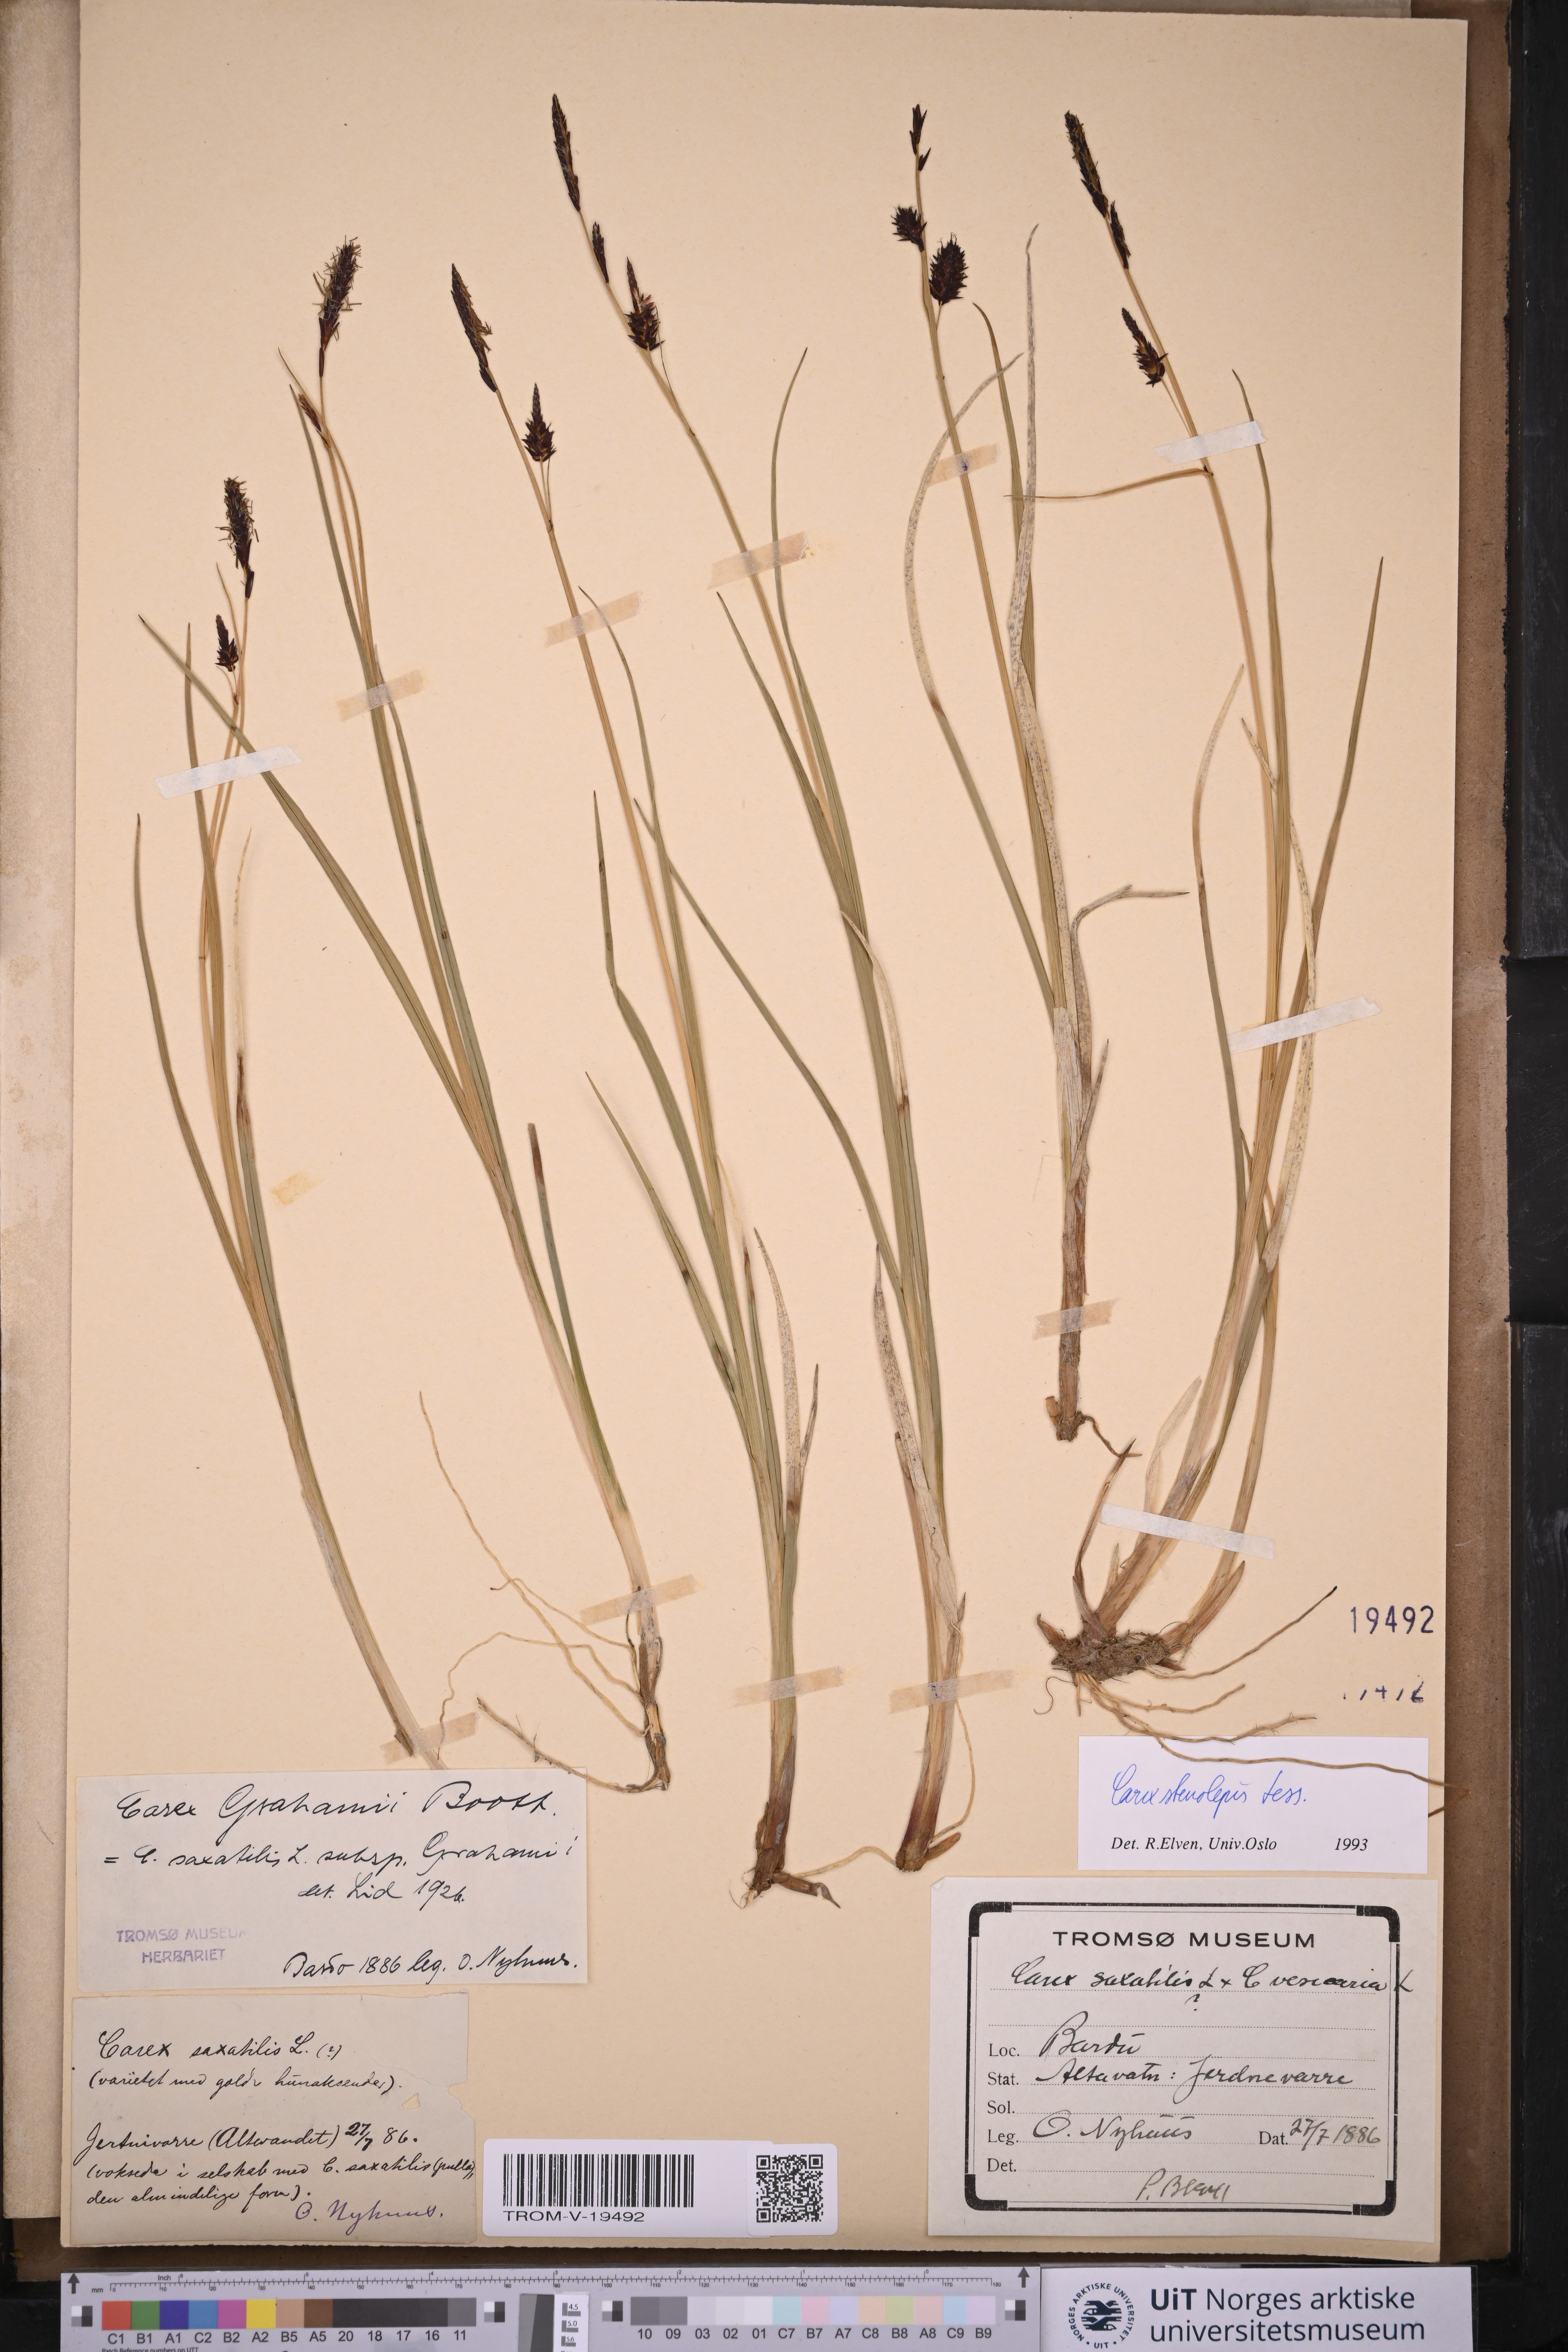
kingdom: Plantae
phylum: Tracheophyta
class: Liliopsida
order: Poales
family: Cyperaceae
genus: Carex
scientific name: Carex grahamii
